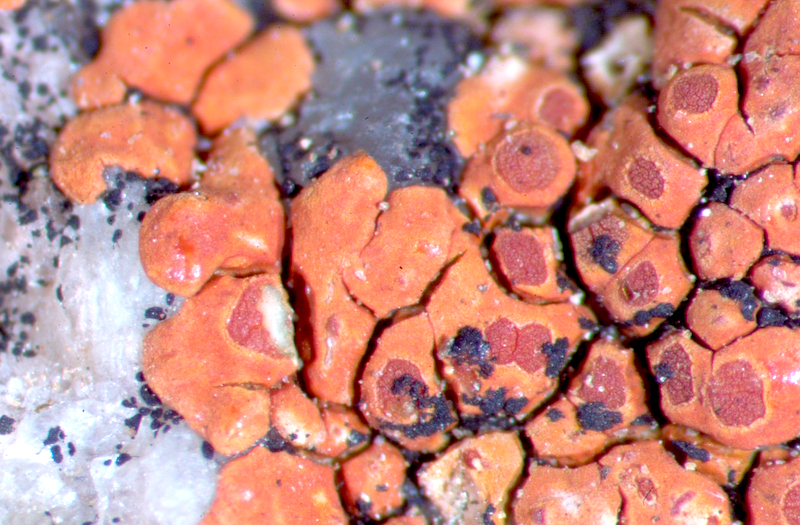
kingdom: Fungi
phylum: Ascomycota
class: Lecanoromycetes
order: Teloschistales
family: Teloschistaceae
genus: Caloplaca
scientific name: Caloplaca
